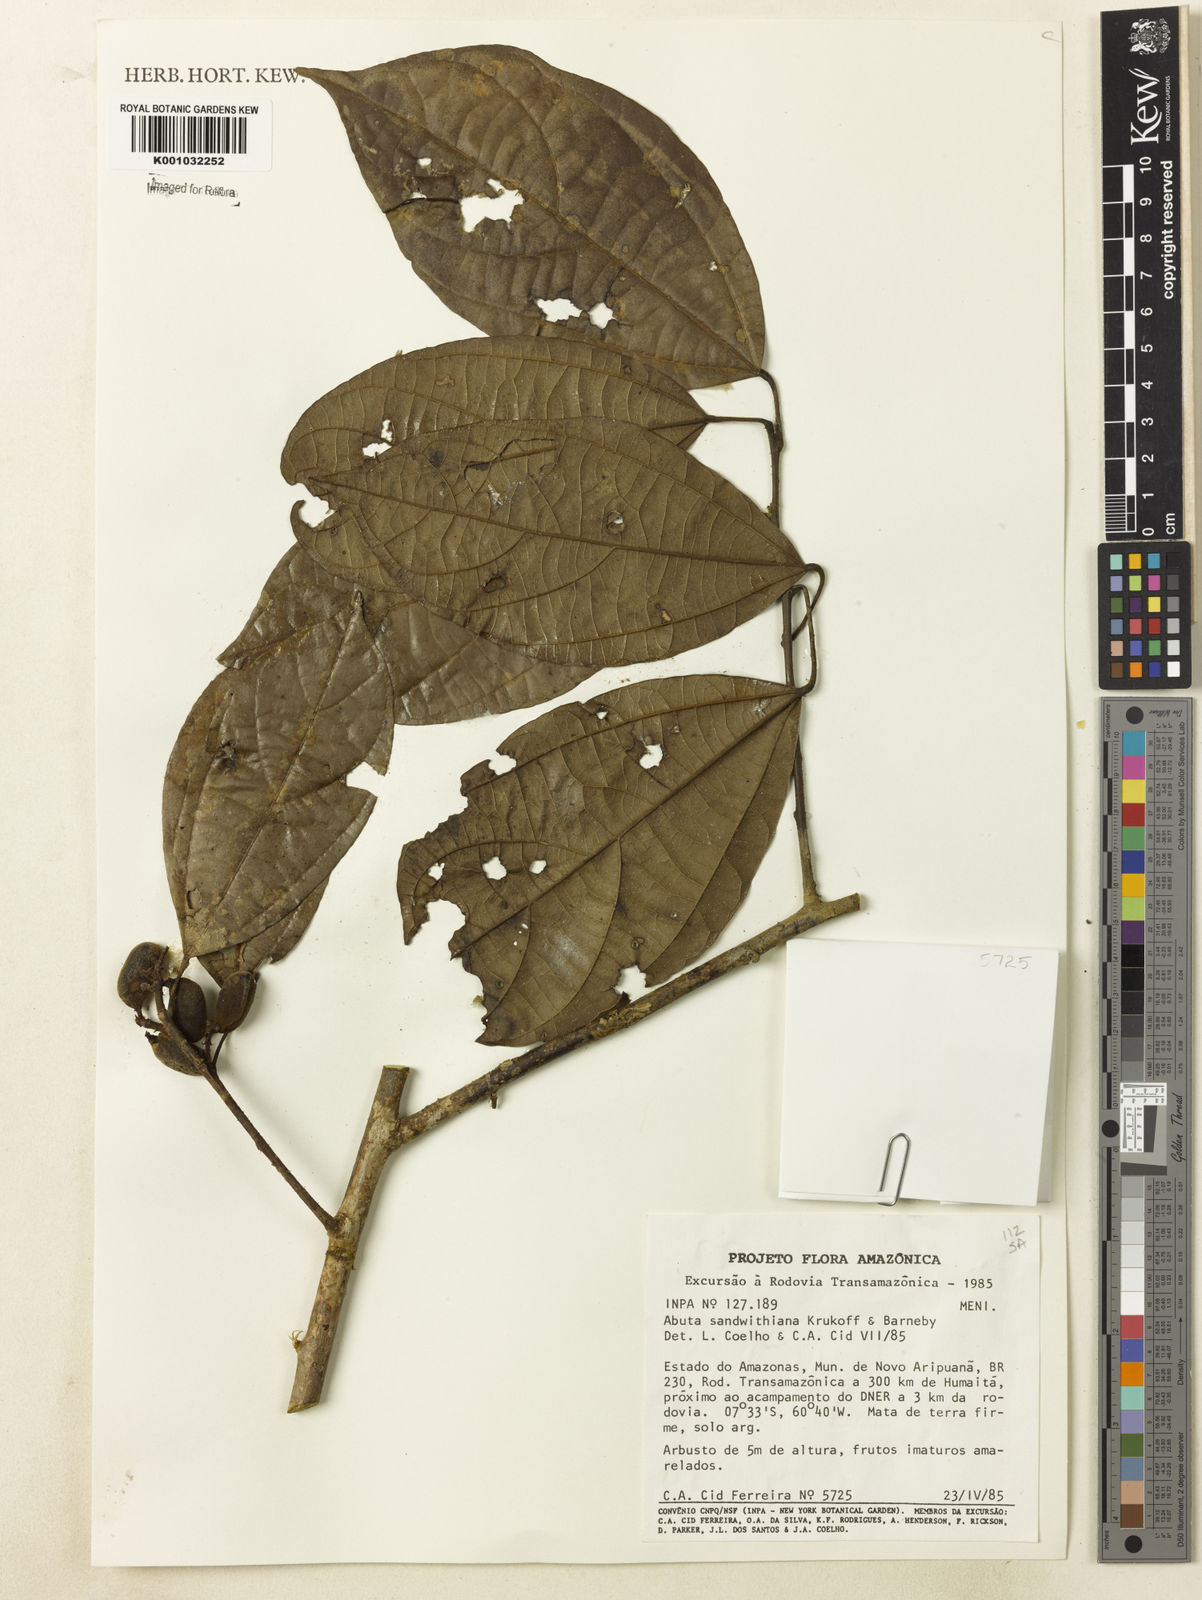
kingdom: Plantae
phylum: Tracheophyta
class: Magnoliopsida
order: Ranunculales
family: Menispermaceae
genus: Abuta
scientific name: Abuta sandwithiana
